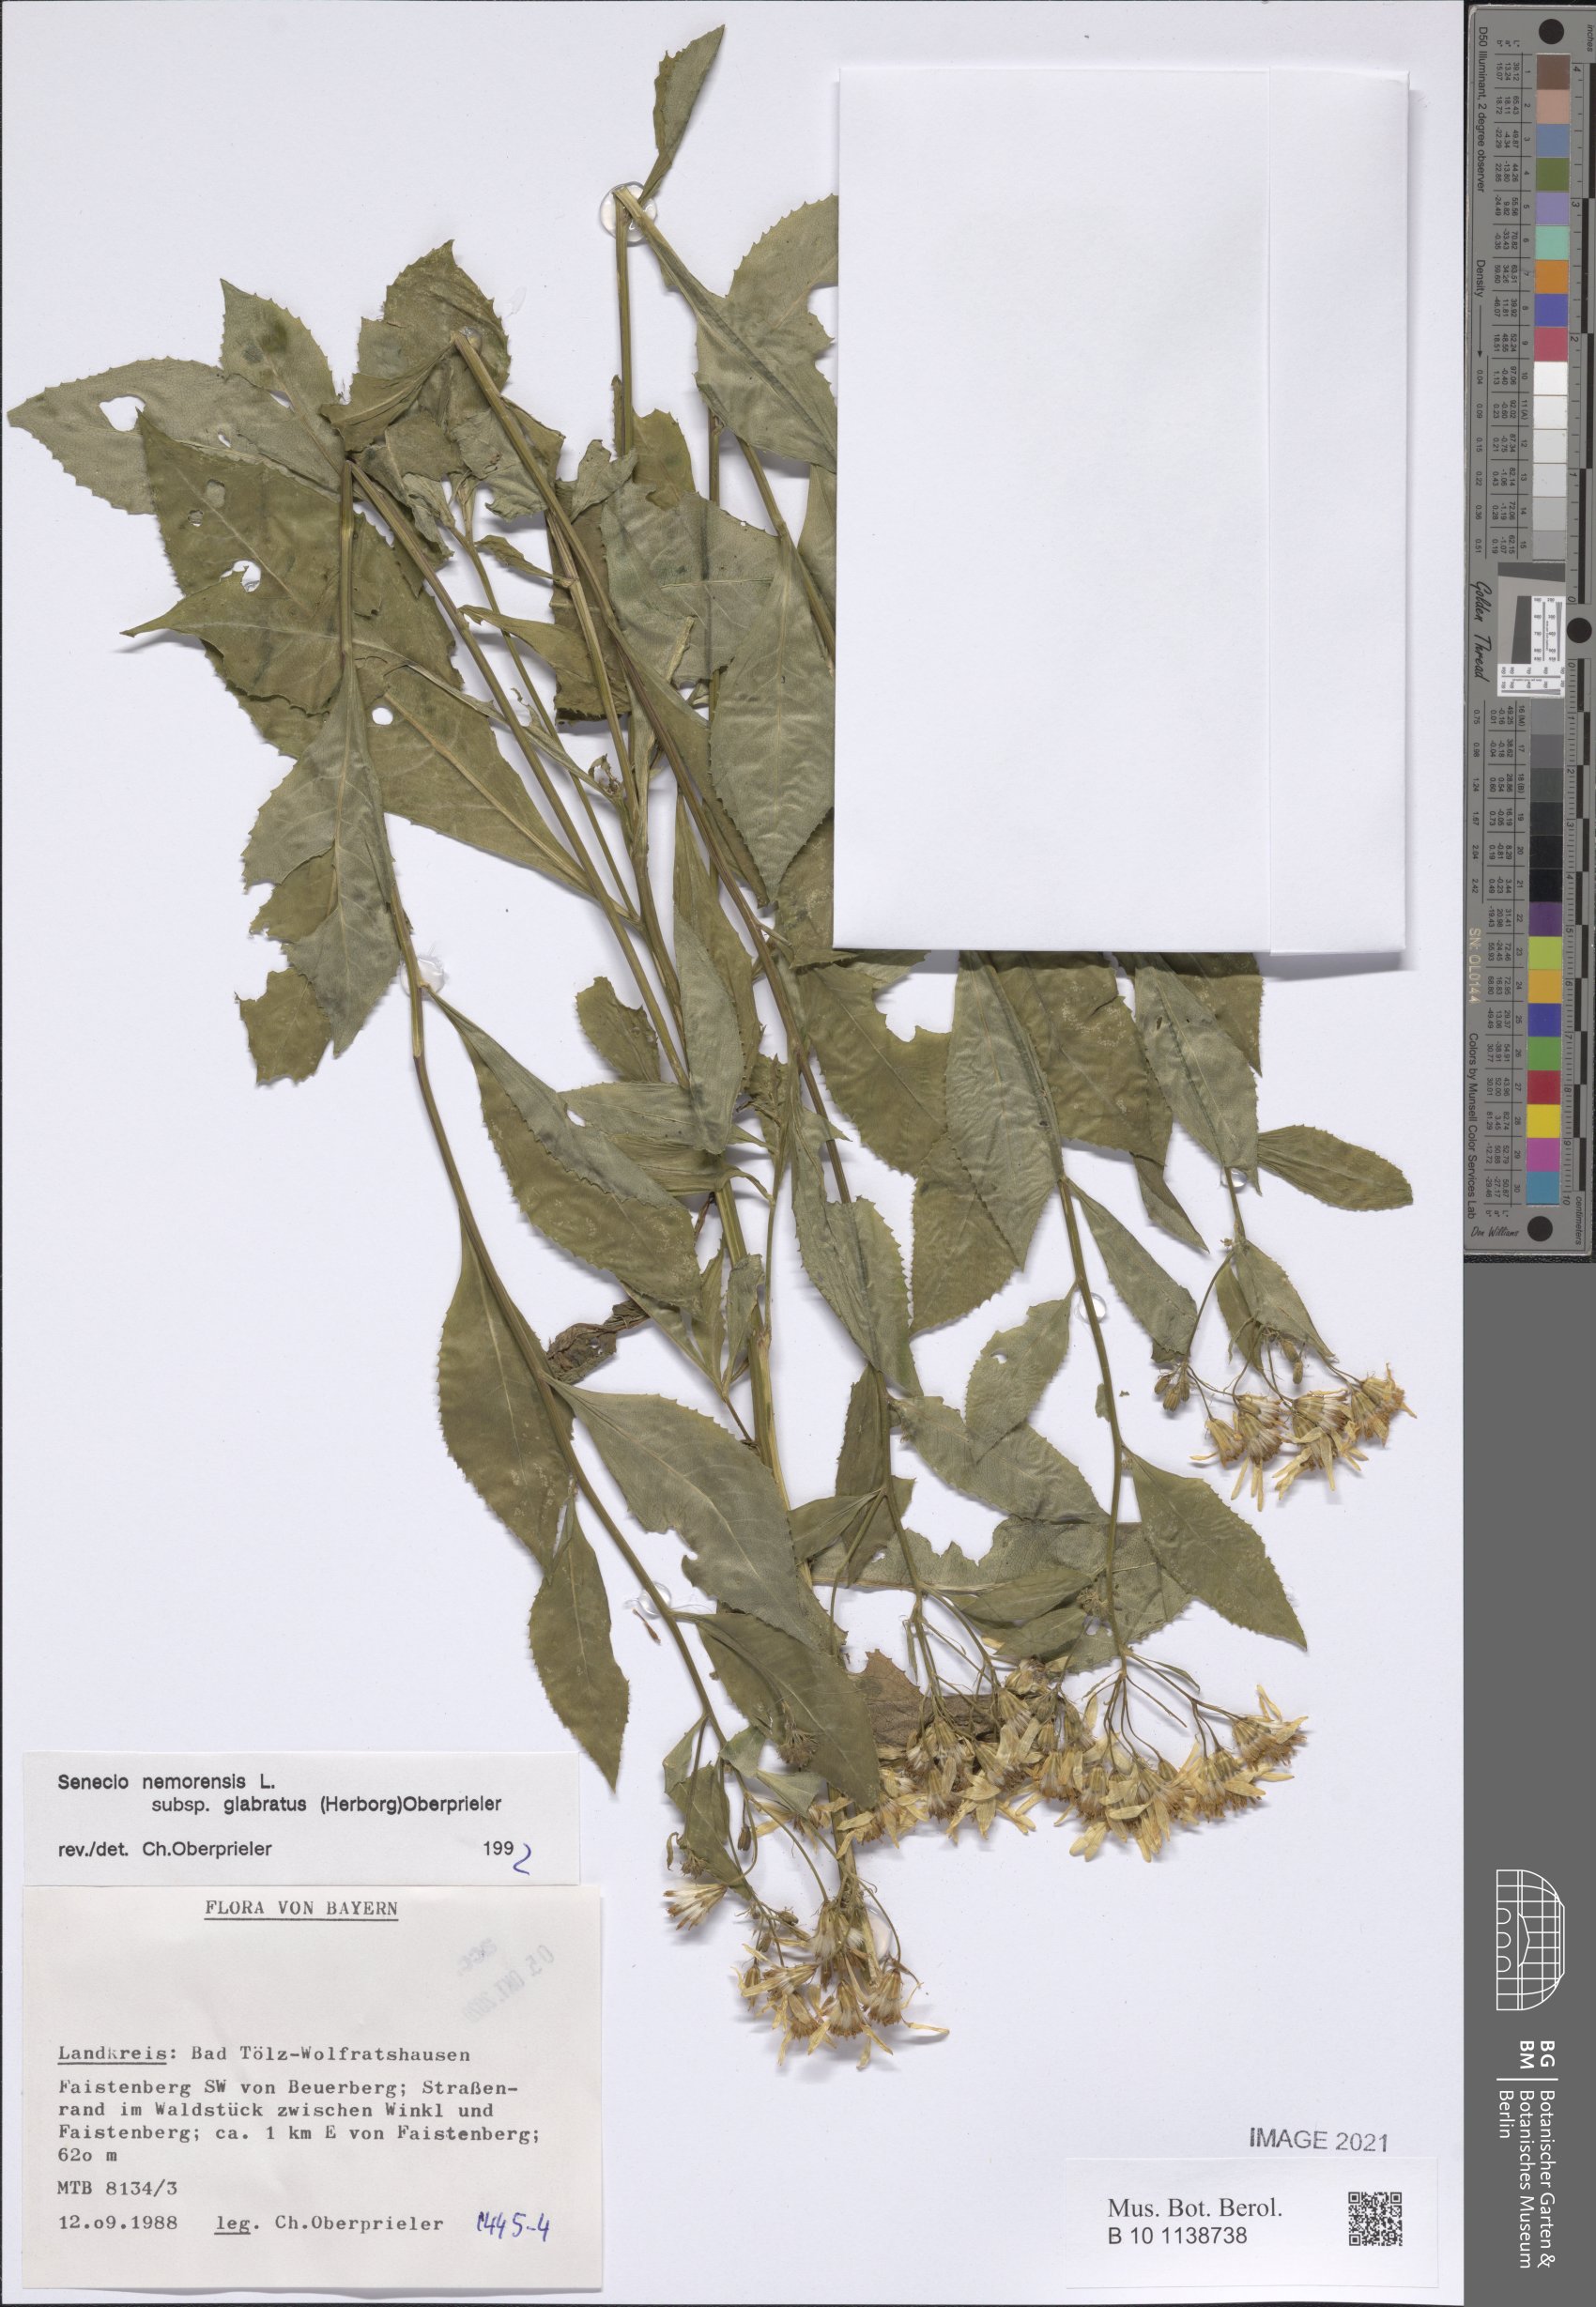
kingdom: Plantae
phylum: Tracheophyta
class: Magnoliopsida
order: Asterales
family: Asteraceae
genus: Senecio
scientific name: Senecio germanicus
